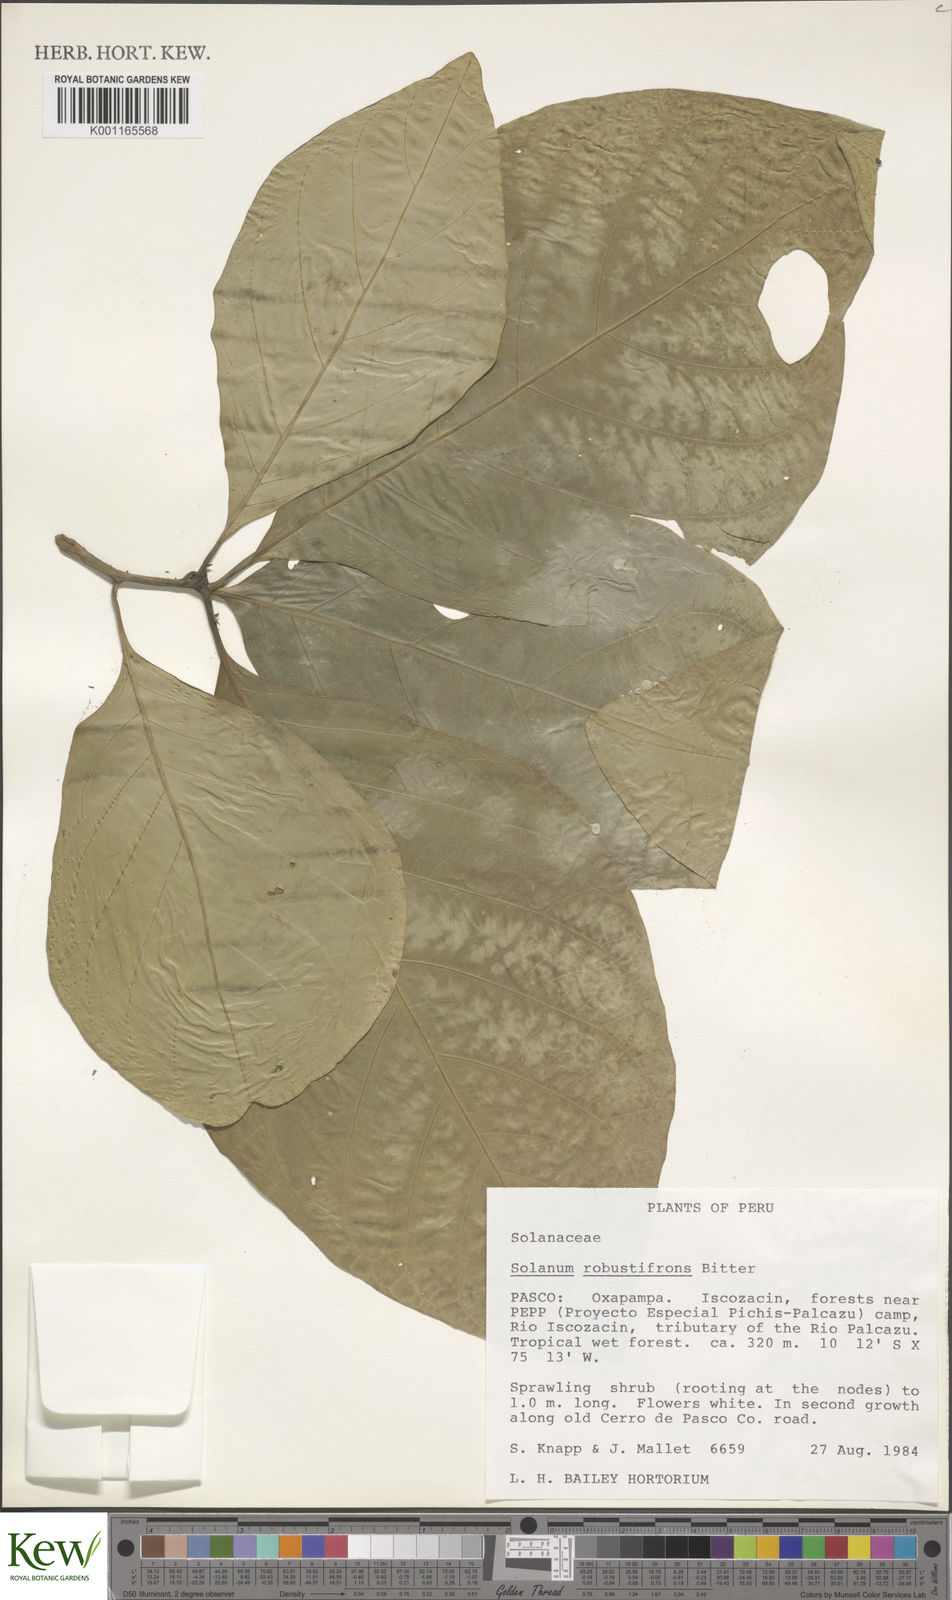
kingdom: Plantae
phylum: Tracheophyta
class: Magnoliopsida
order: Solanales
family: Solanaceae
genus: Solanum
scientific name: Solanum robustifrons
